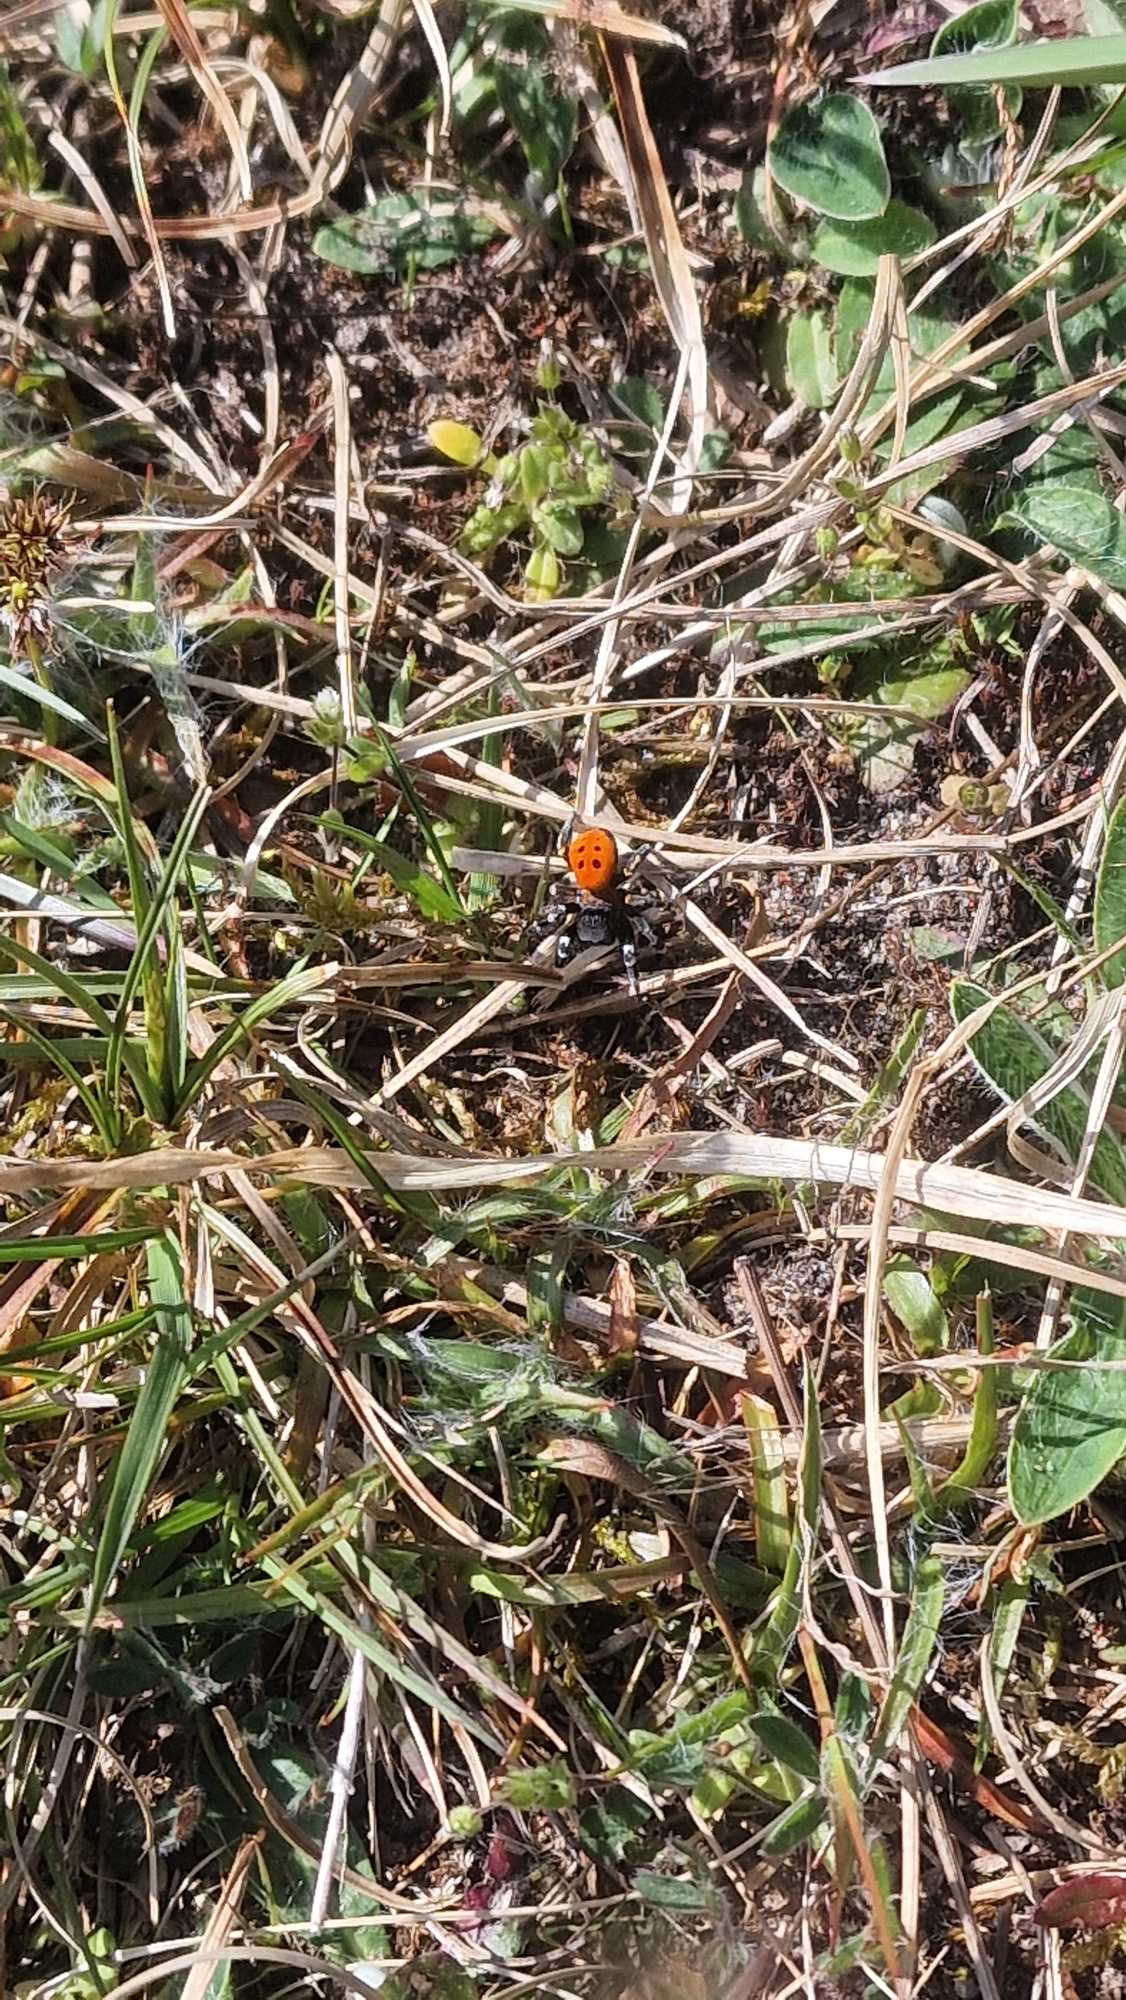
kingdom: Animalia
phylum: Arthropoda
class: Arachnida
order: Araneae
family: Eresidae
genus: Eresus
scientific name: Eresus sandaliatus
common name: Mariehøneedderkop
